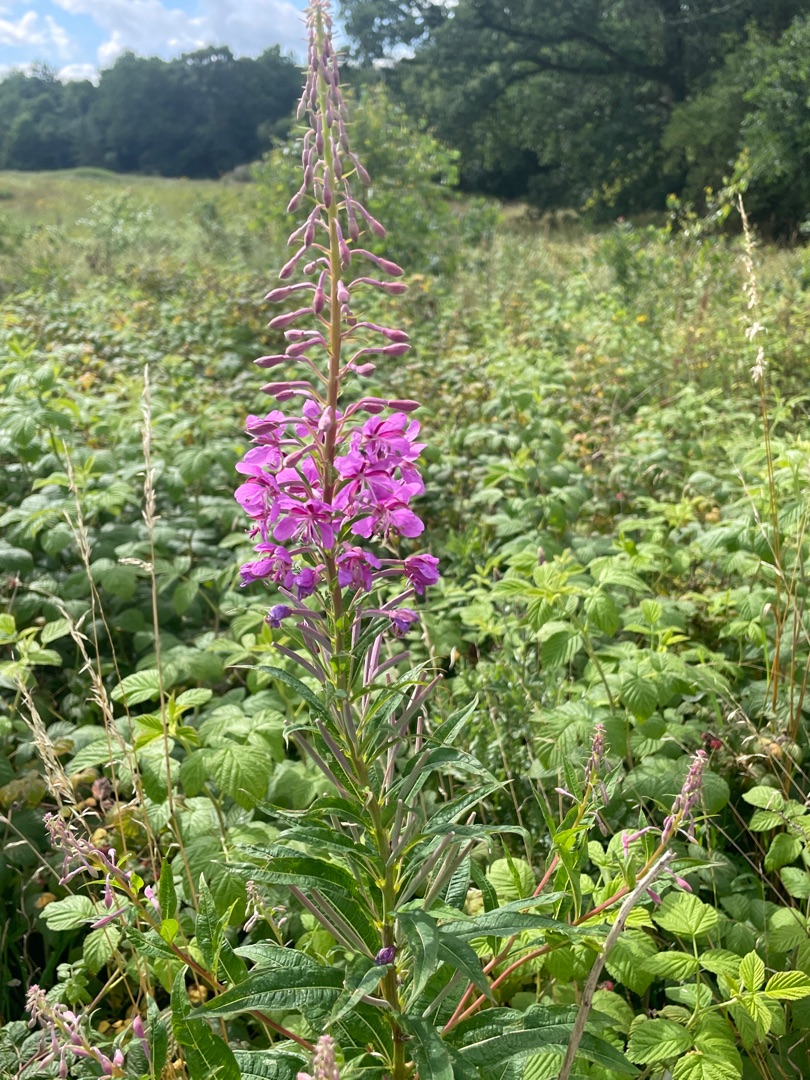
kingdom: Plantae
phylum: Tracheophyta
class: Magnoliopsida
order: Myrtales
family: Onagraceae
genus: Chamaenerion
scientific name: Chamaenerion angustifolium
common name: Gederams
